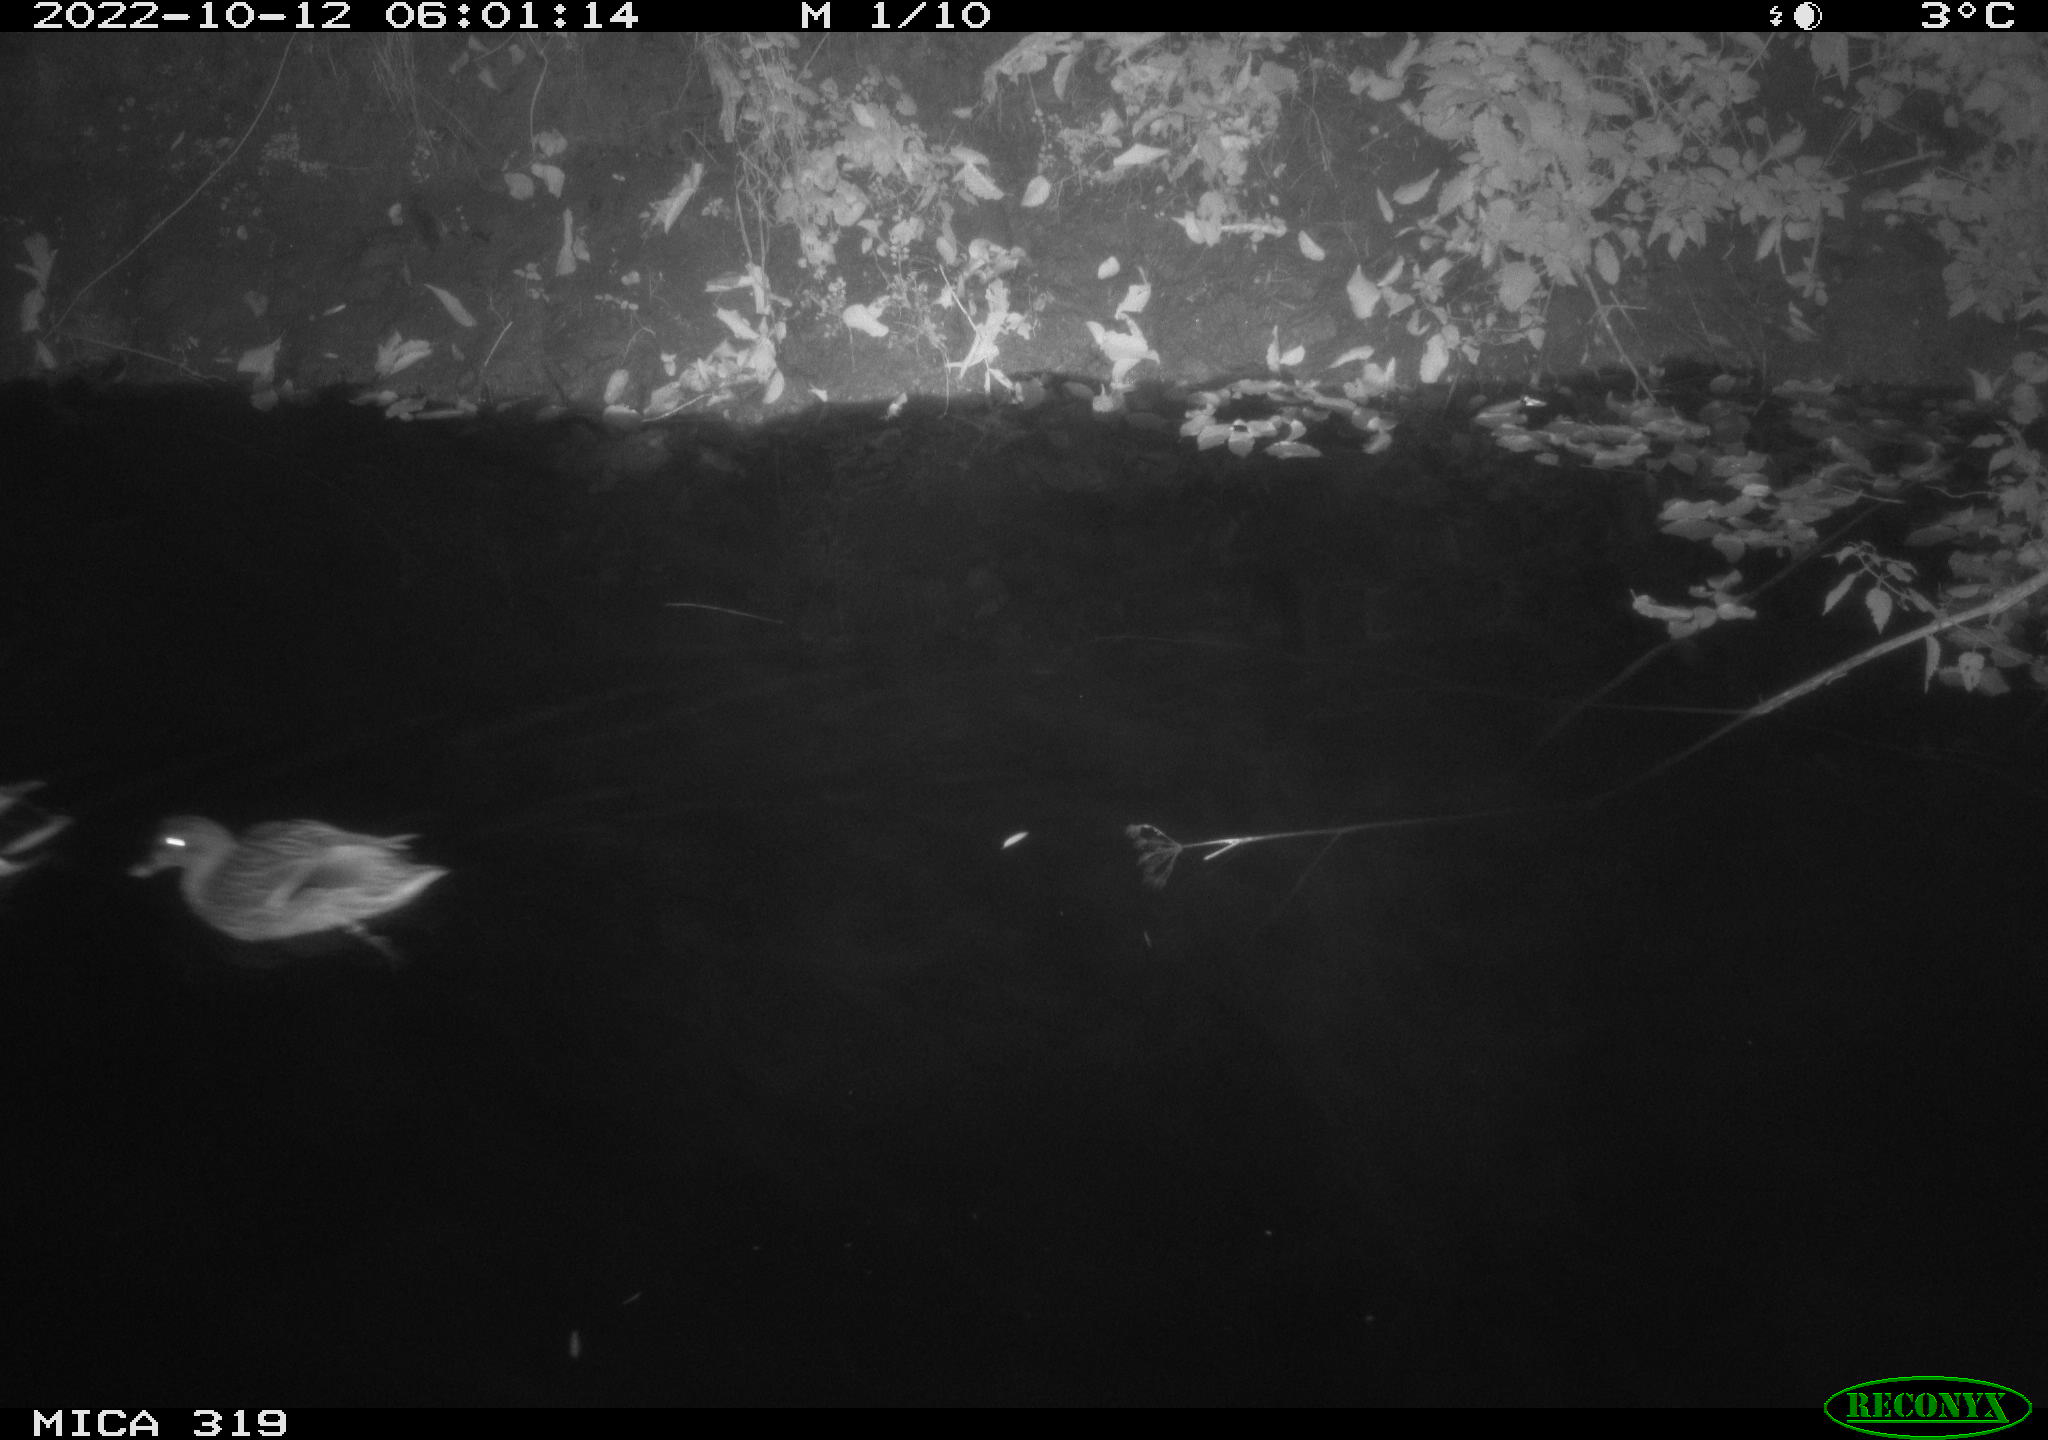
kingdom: Animalia
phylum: Chordata
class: Aves
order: Anseriformes
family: Anatidae
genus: Anas
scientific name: Anas
